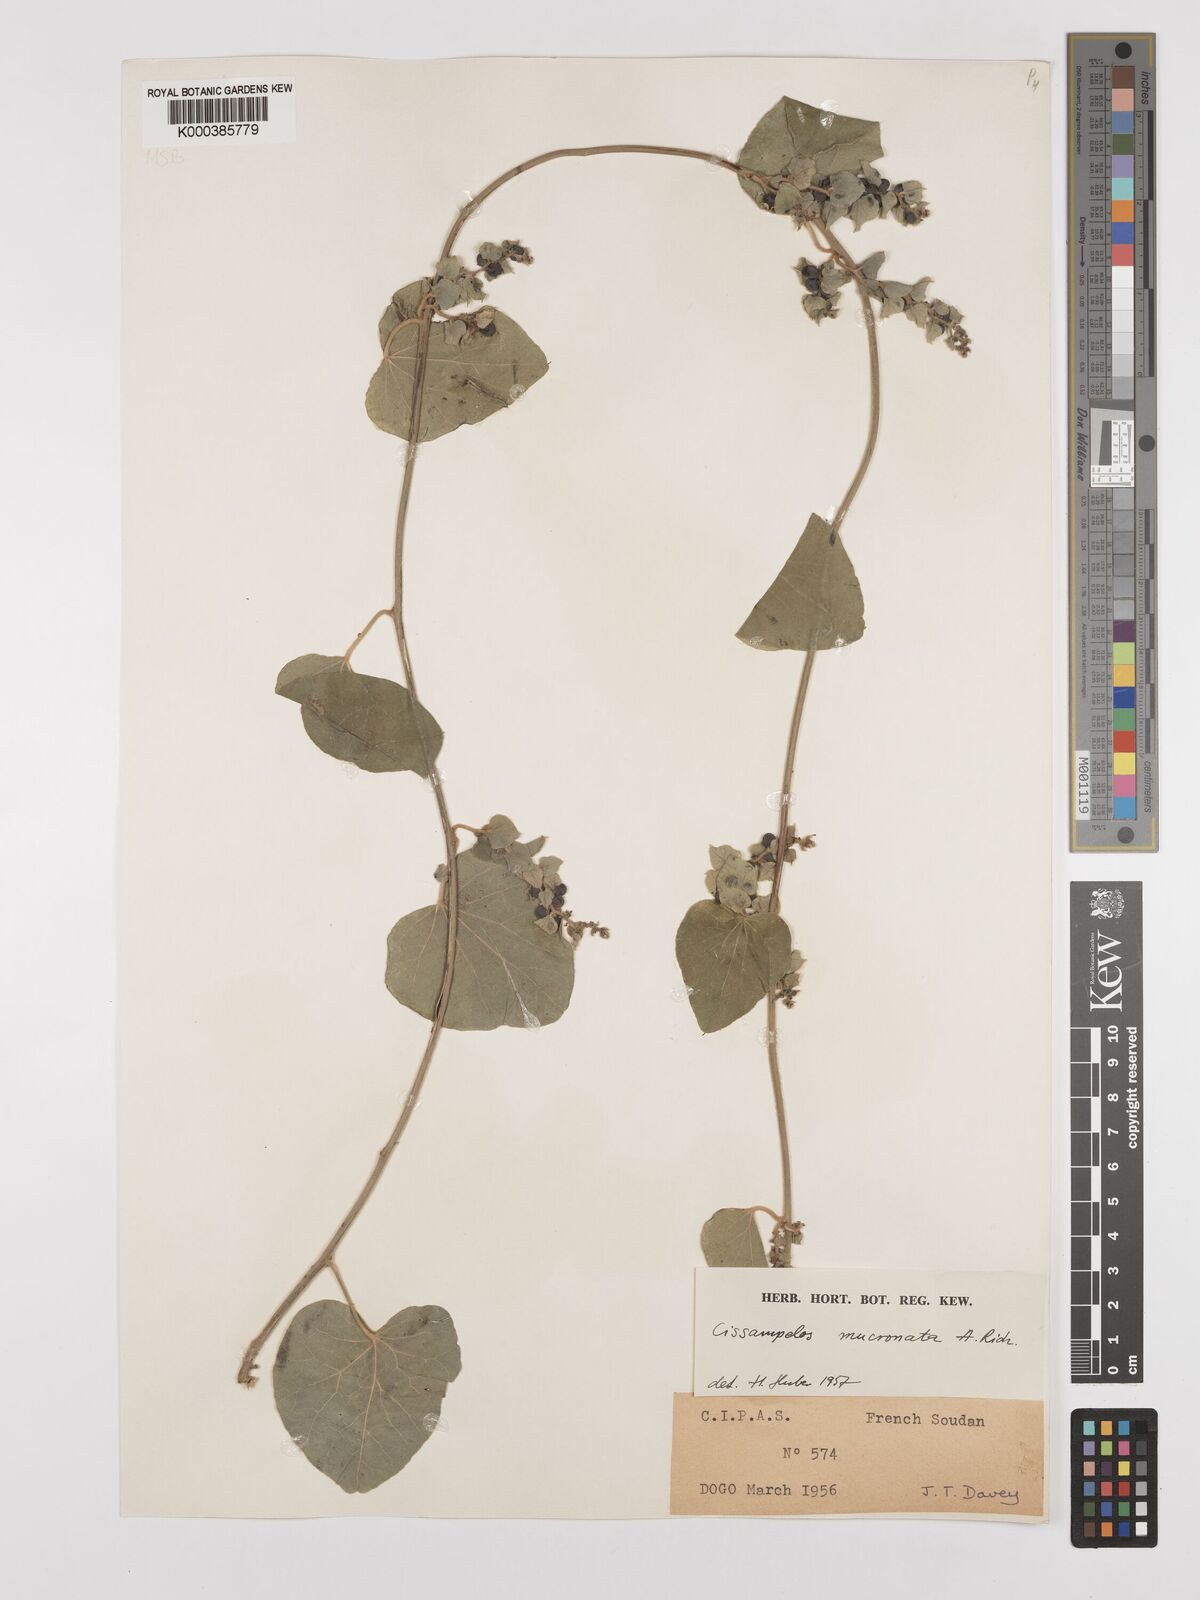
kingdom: Plantae
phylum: Tracheophyta
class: Magnoliopsida
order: Ranunculales
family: Menispermaceae
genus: Cissampelos
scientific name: Cissampelos mucronata
